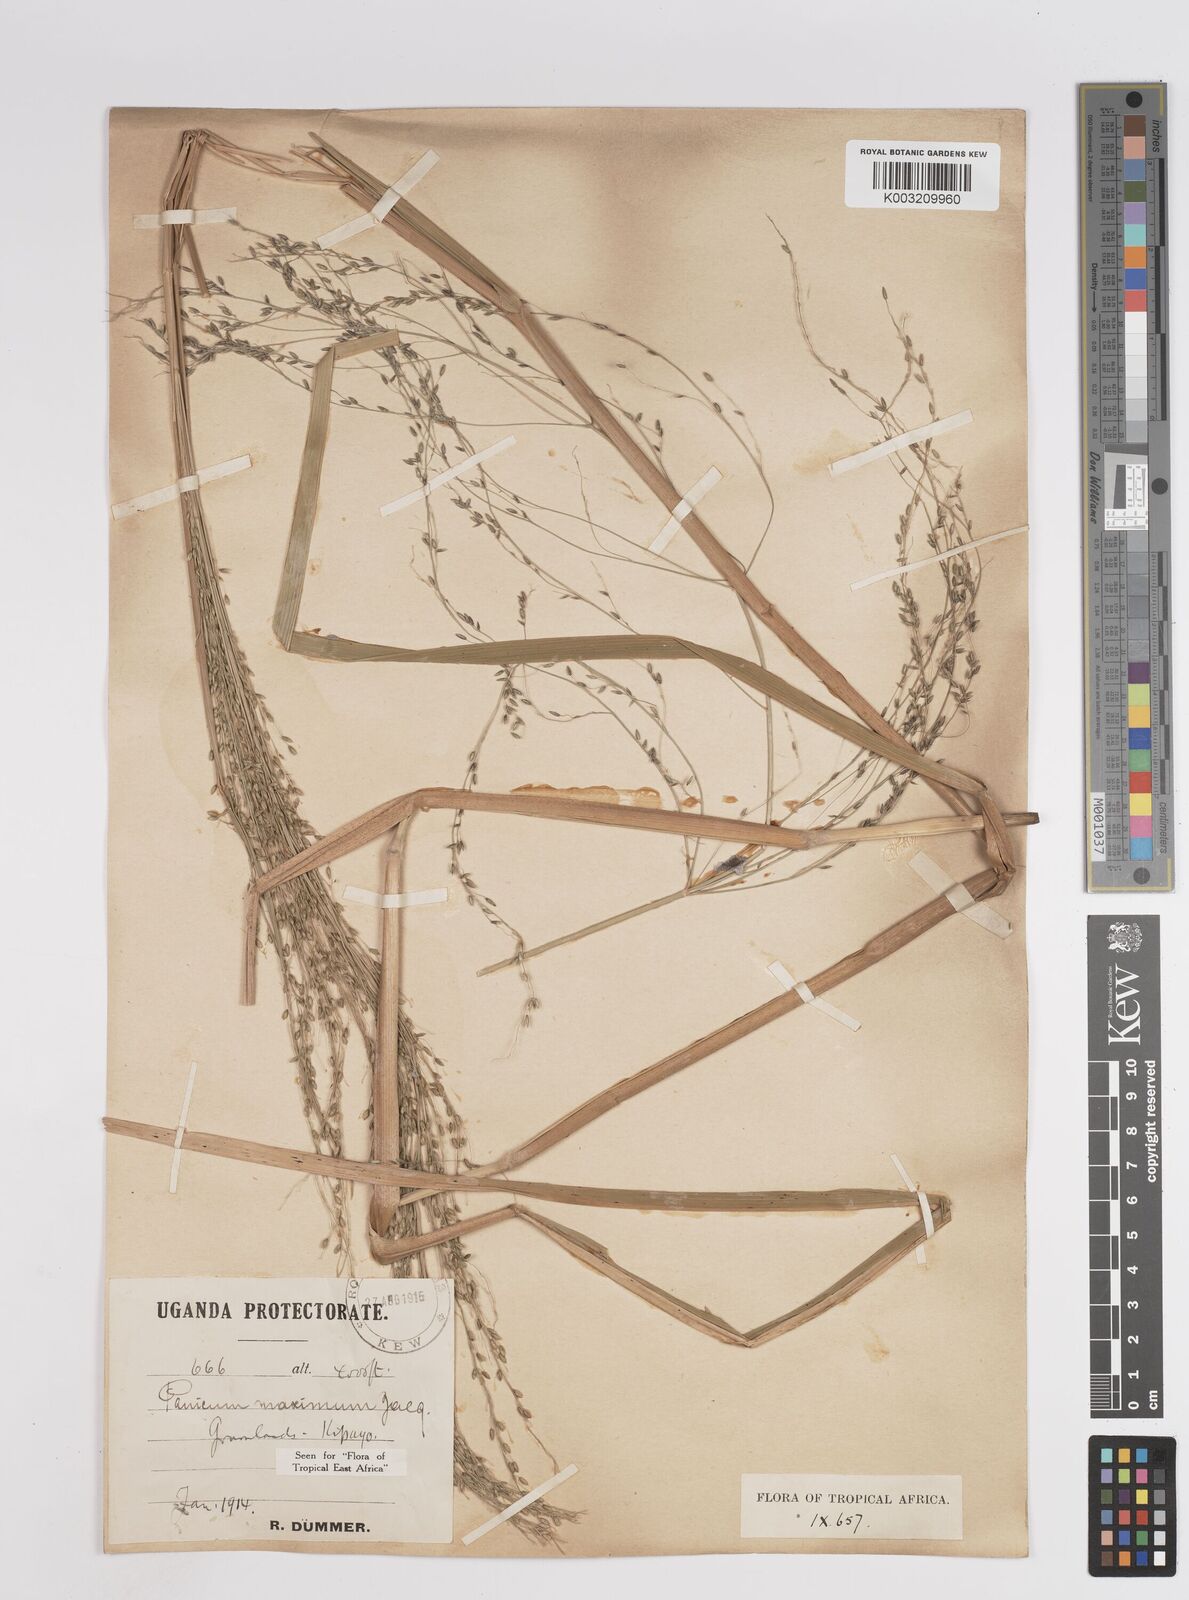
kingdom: Plantae
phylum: Tracheophyta
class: Liliopsida
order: Poales
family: Poaceae
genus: Megathyrsus
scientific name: Megathyrsus maximus
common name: Guineagrass
